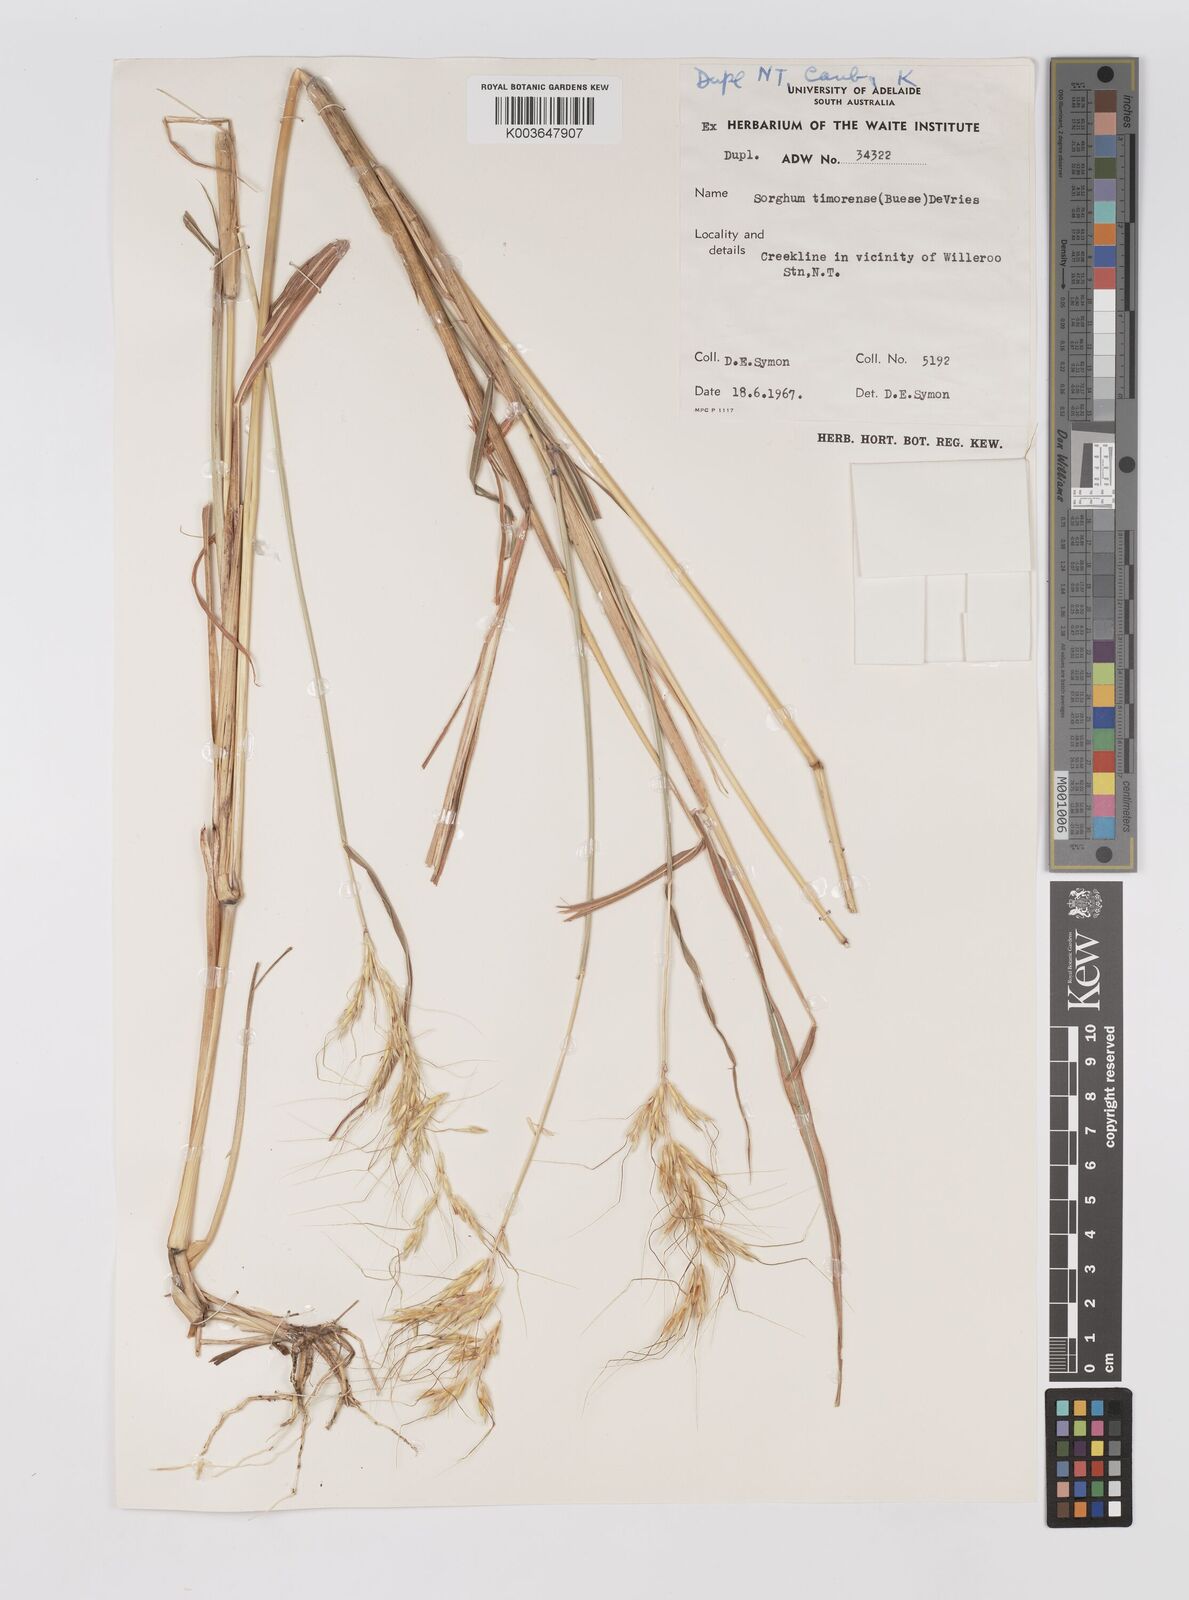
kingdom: Plantae
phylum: Tracheophyta
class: Liliopsida
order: Poales
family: Poaceae
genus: Sarga
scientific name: Sarga timorensis
